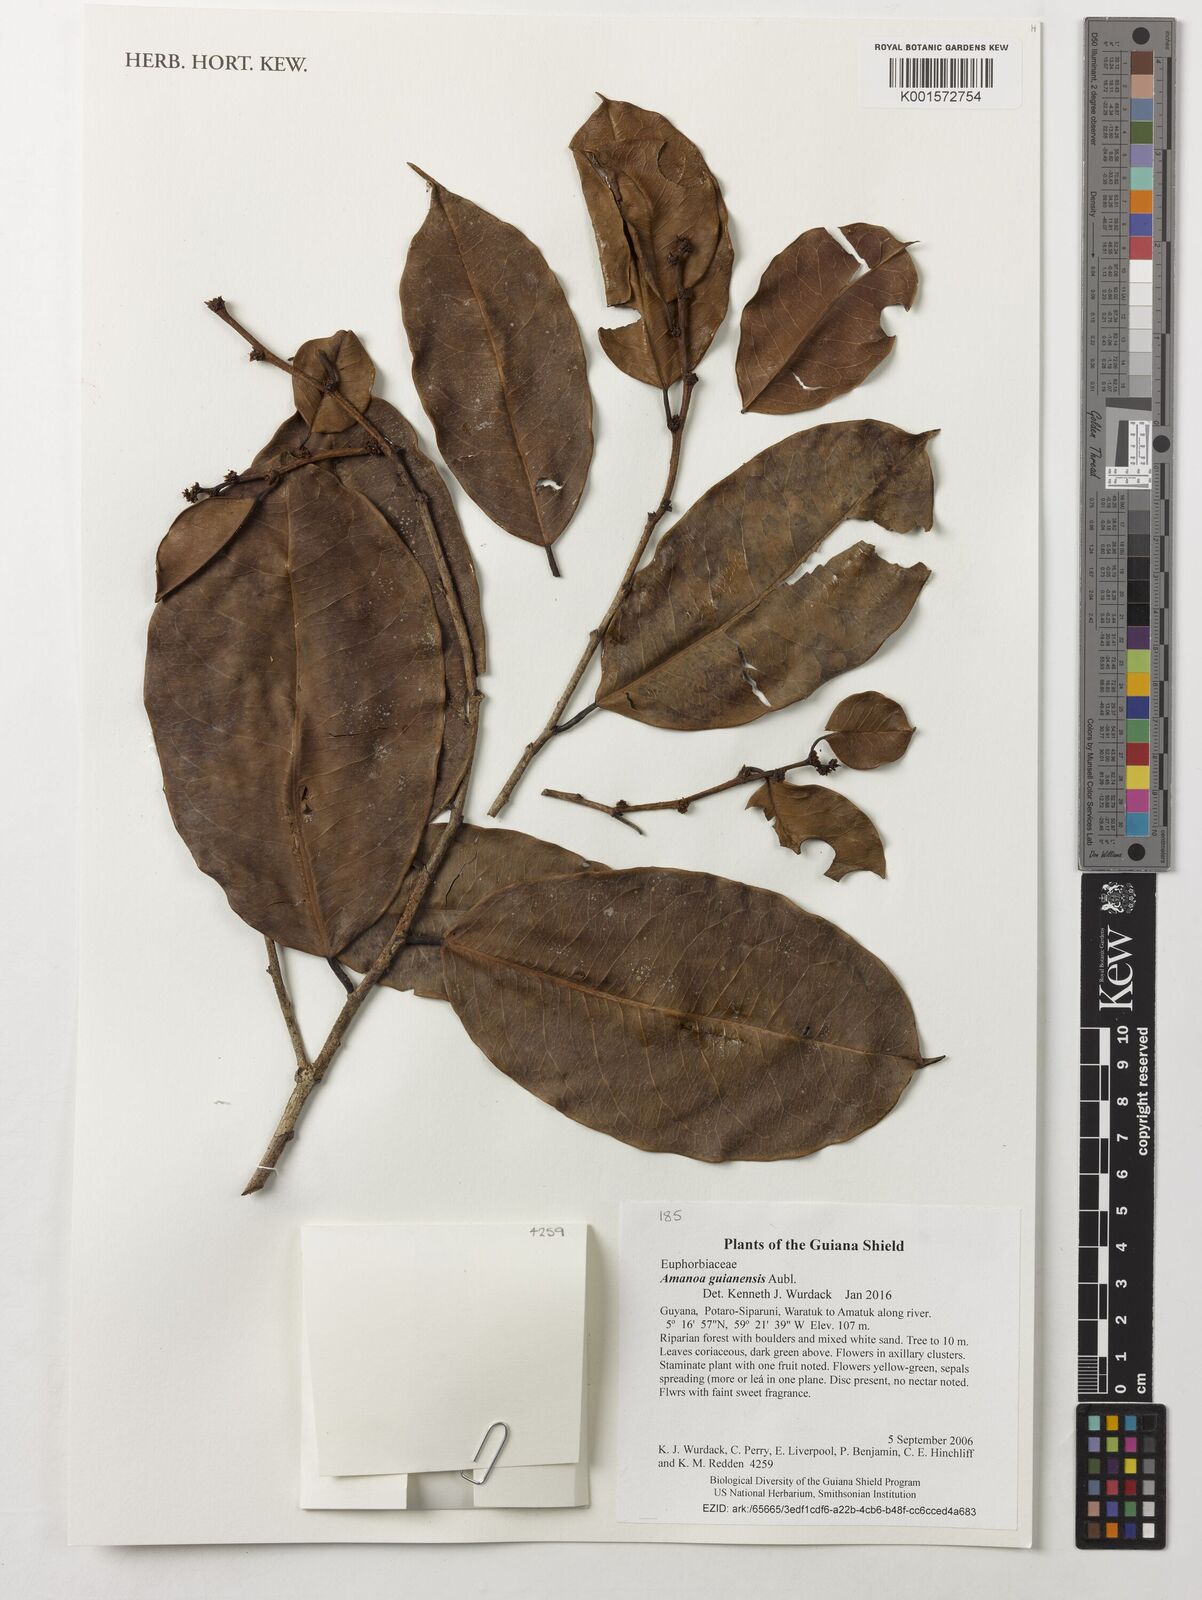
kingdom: Plantae
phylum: Tracheophyta
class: Magnoliopsida
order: Malpighiales
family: Phyllanthaceae
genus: Amanoa
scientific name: Amanoa guianensis
